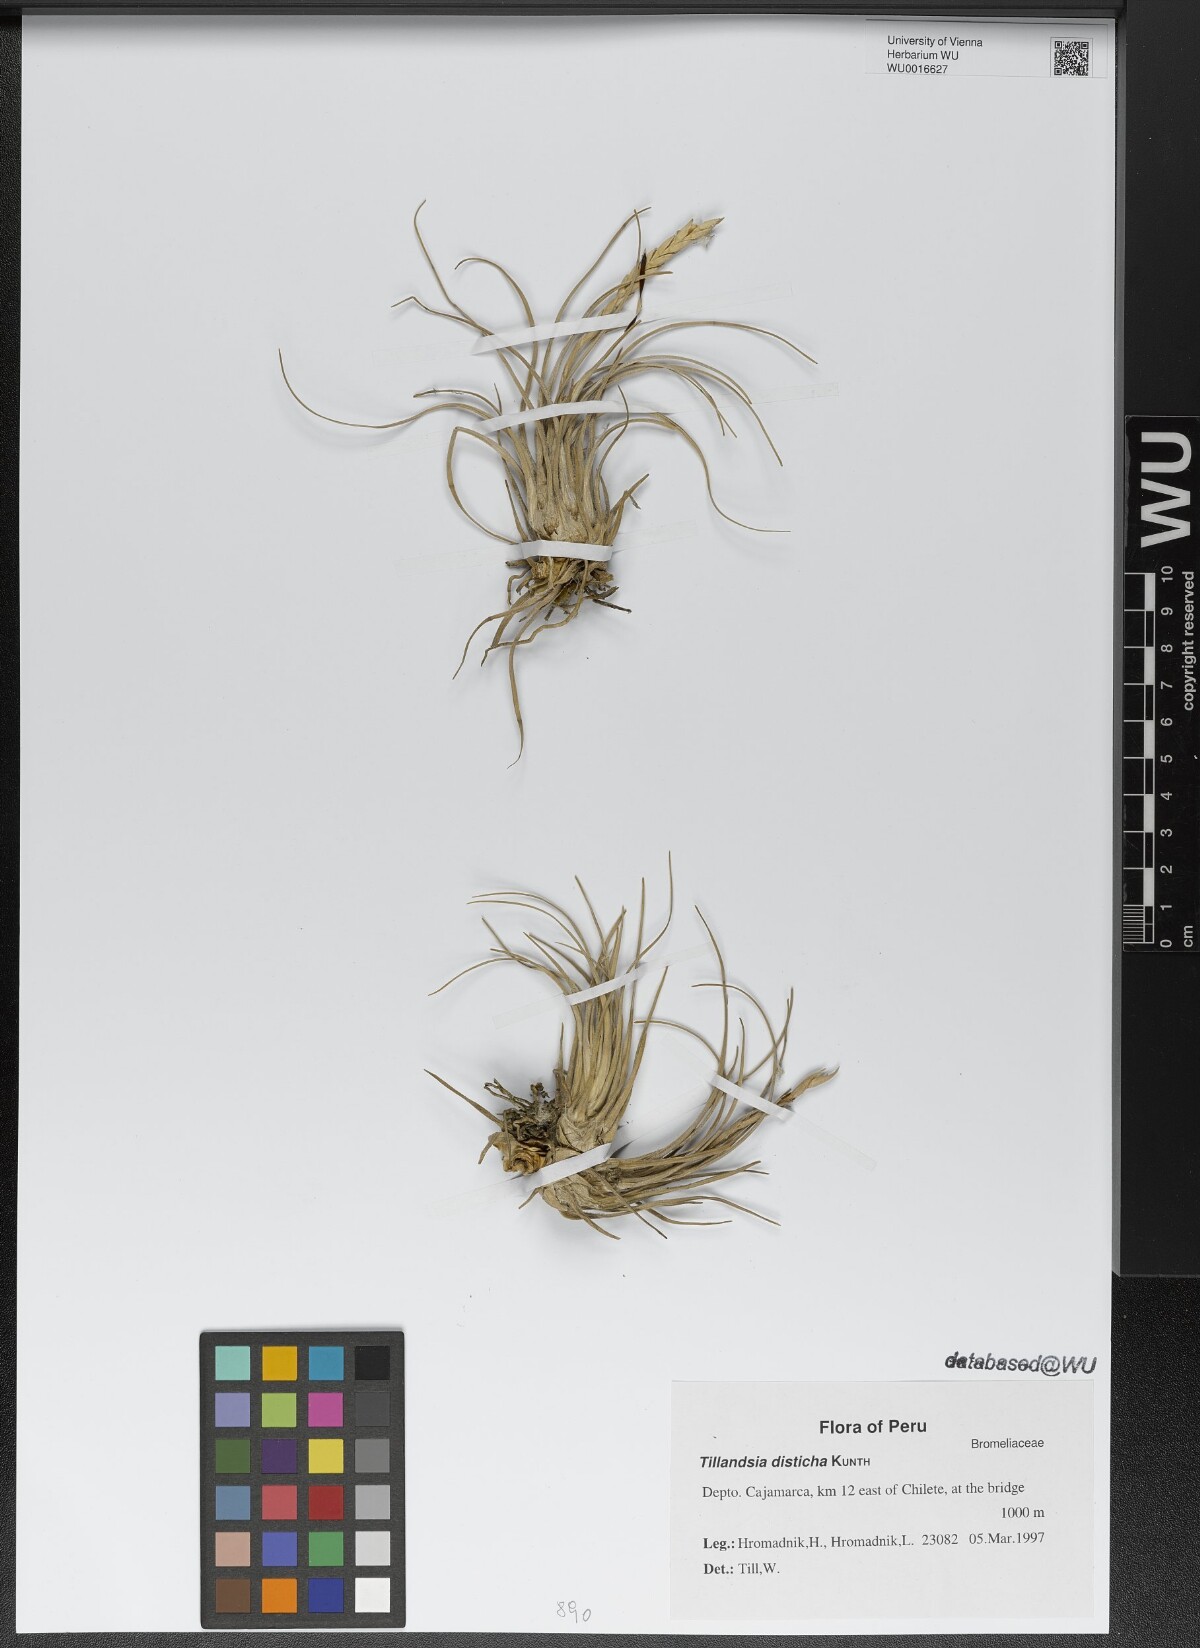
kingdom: Plantae
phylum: Tracheophyta
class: Liliopsida
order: Poales
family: Bromeliaceae
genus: Tillandsia
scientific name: Tillandsia disticha
